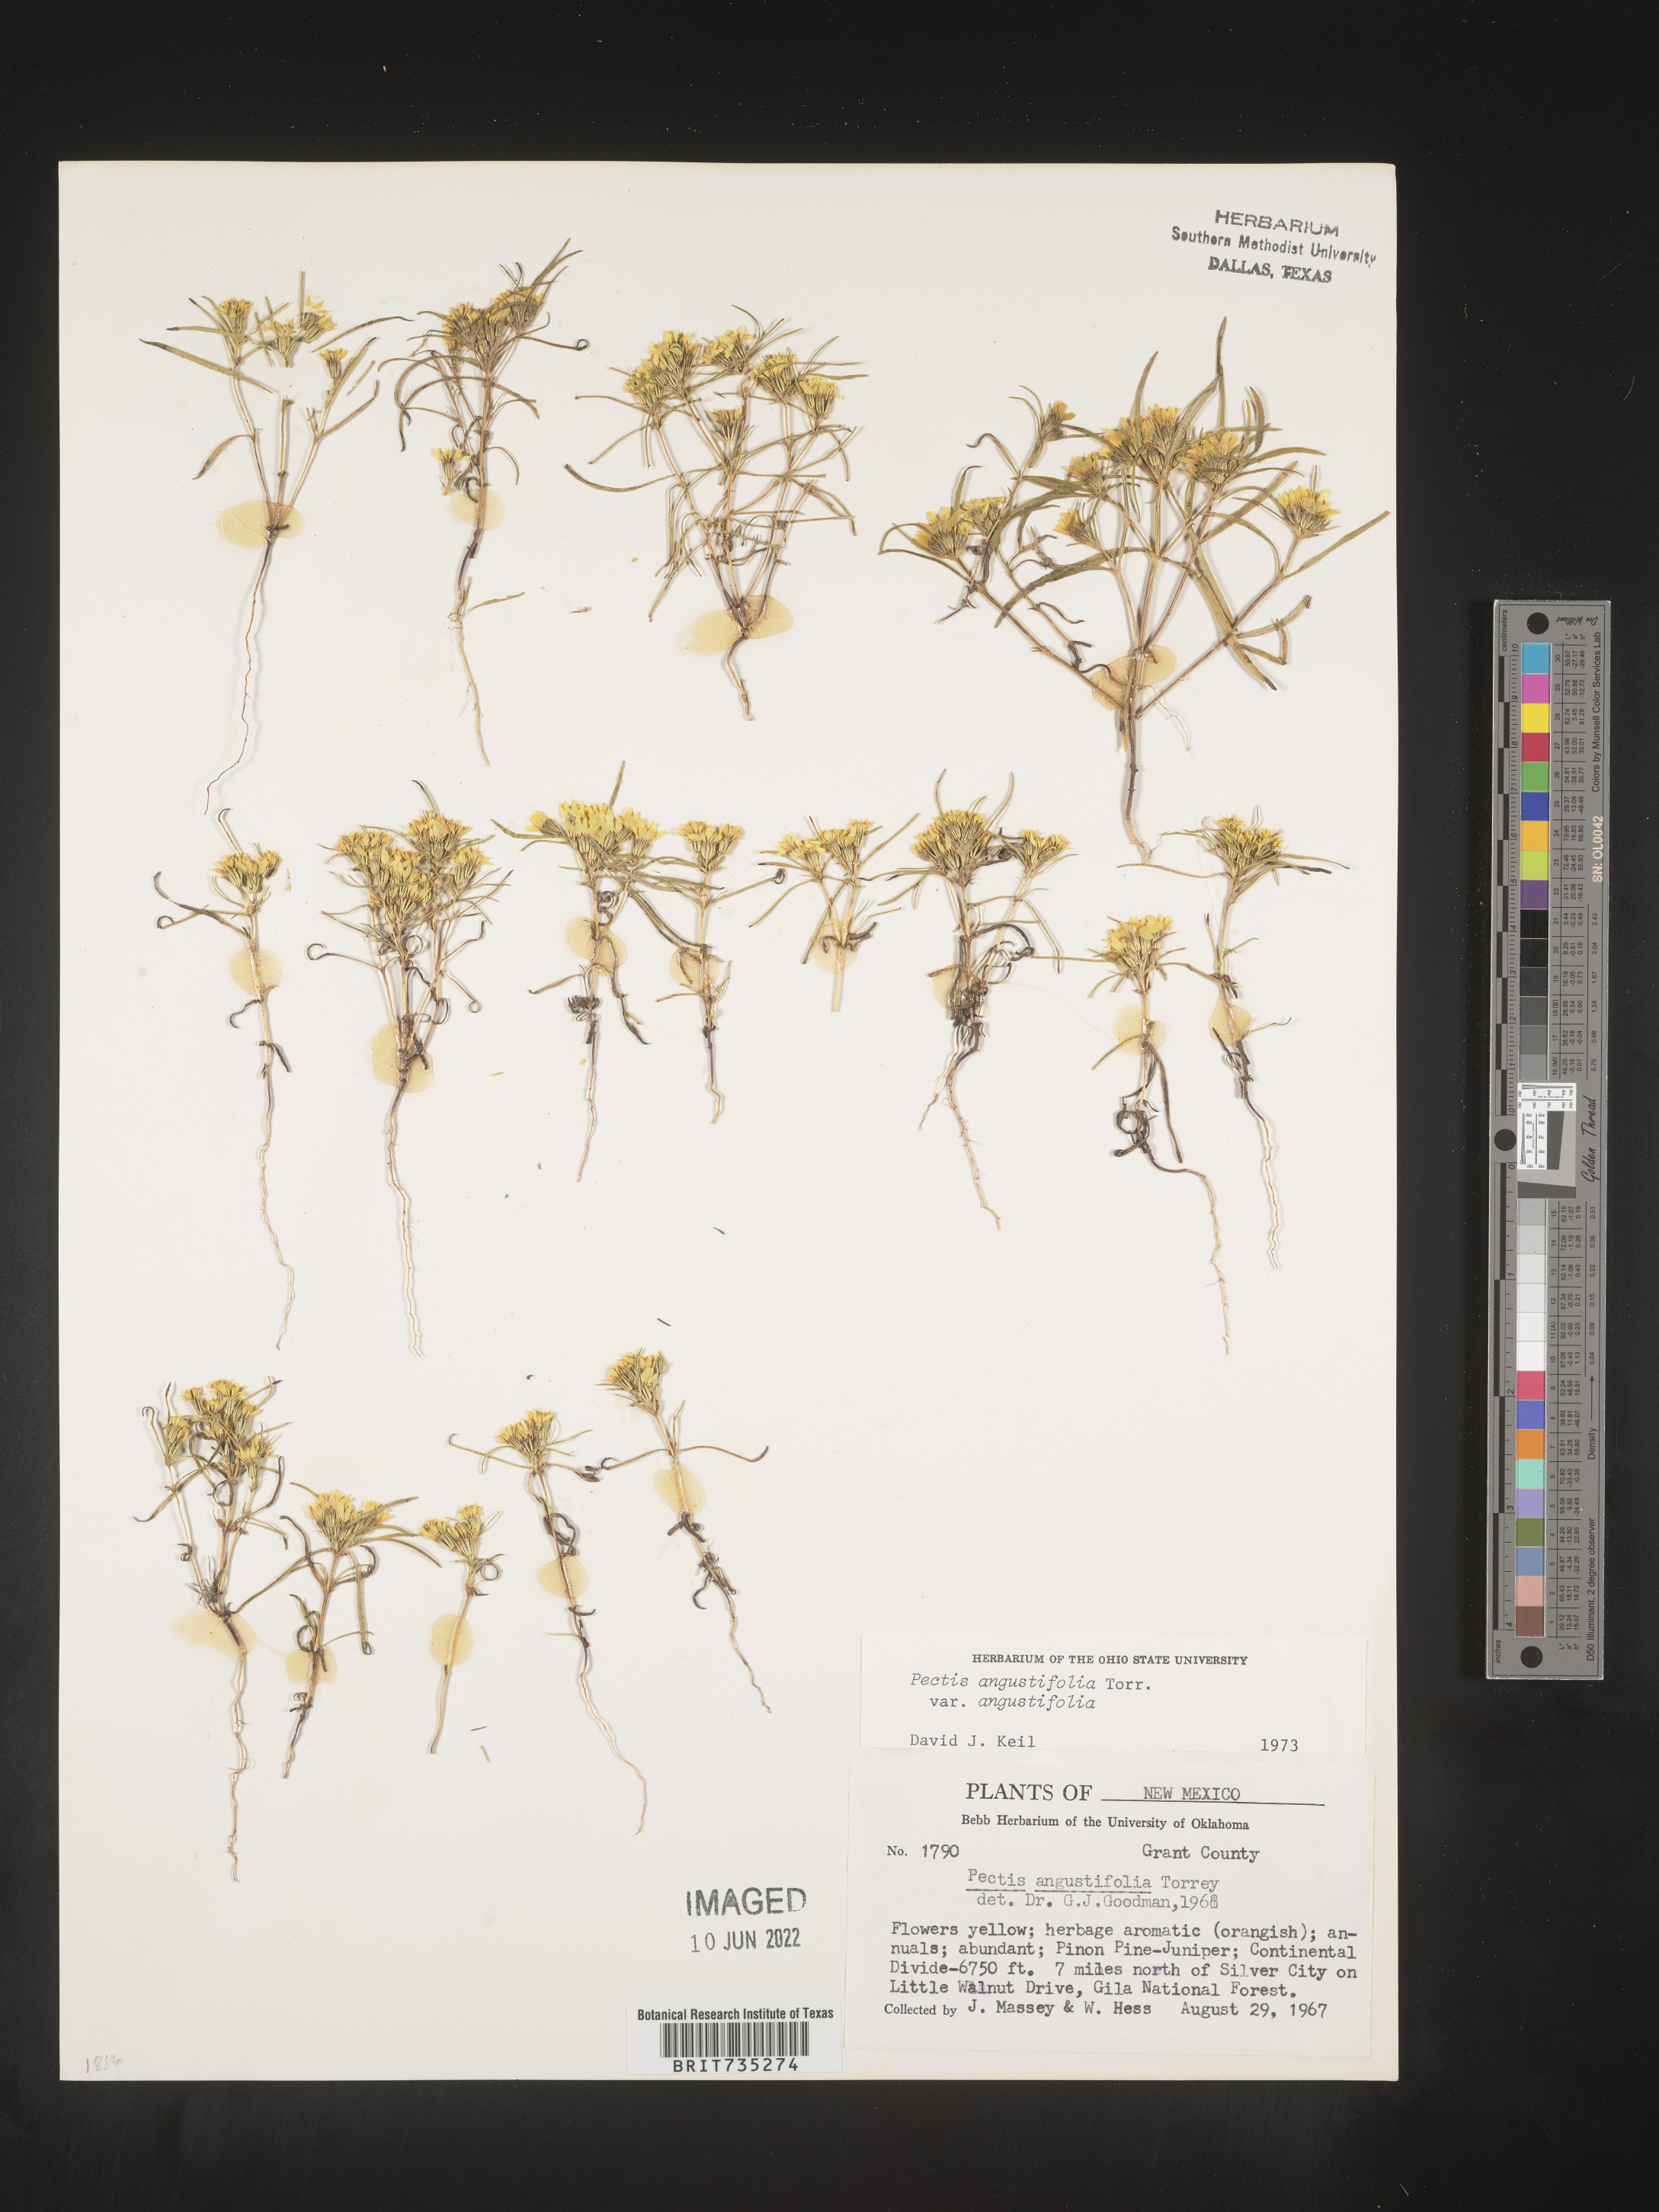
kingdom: Plantae
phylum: Tracheophyta
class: Magnoliopsida
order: Asterales
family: Asteraceae
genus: Pectis
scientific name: Pectis angustifolia
